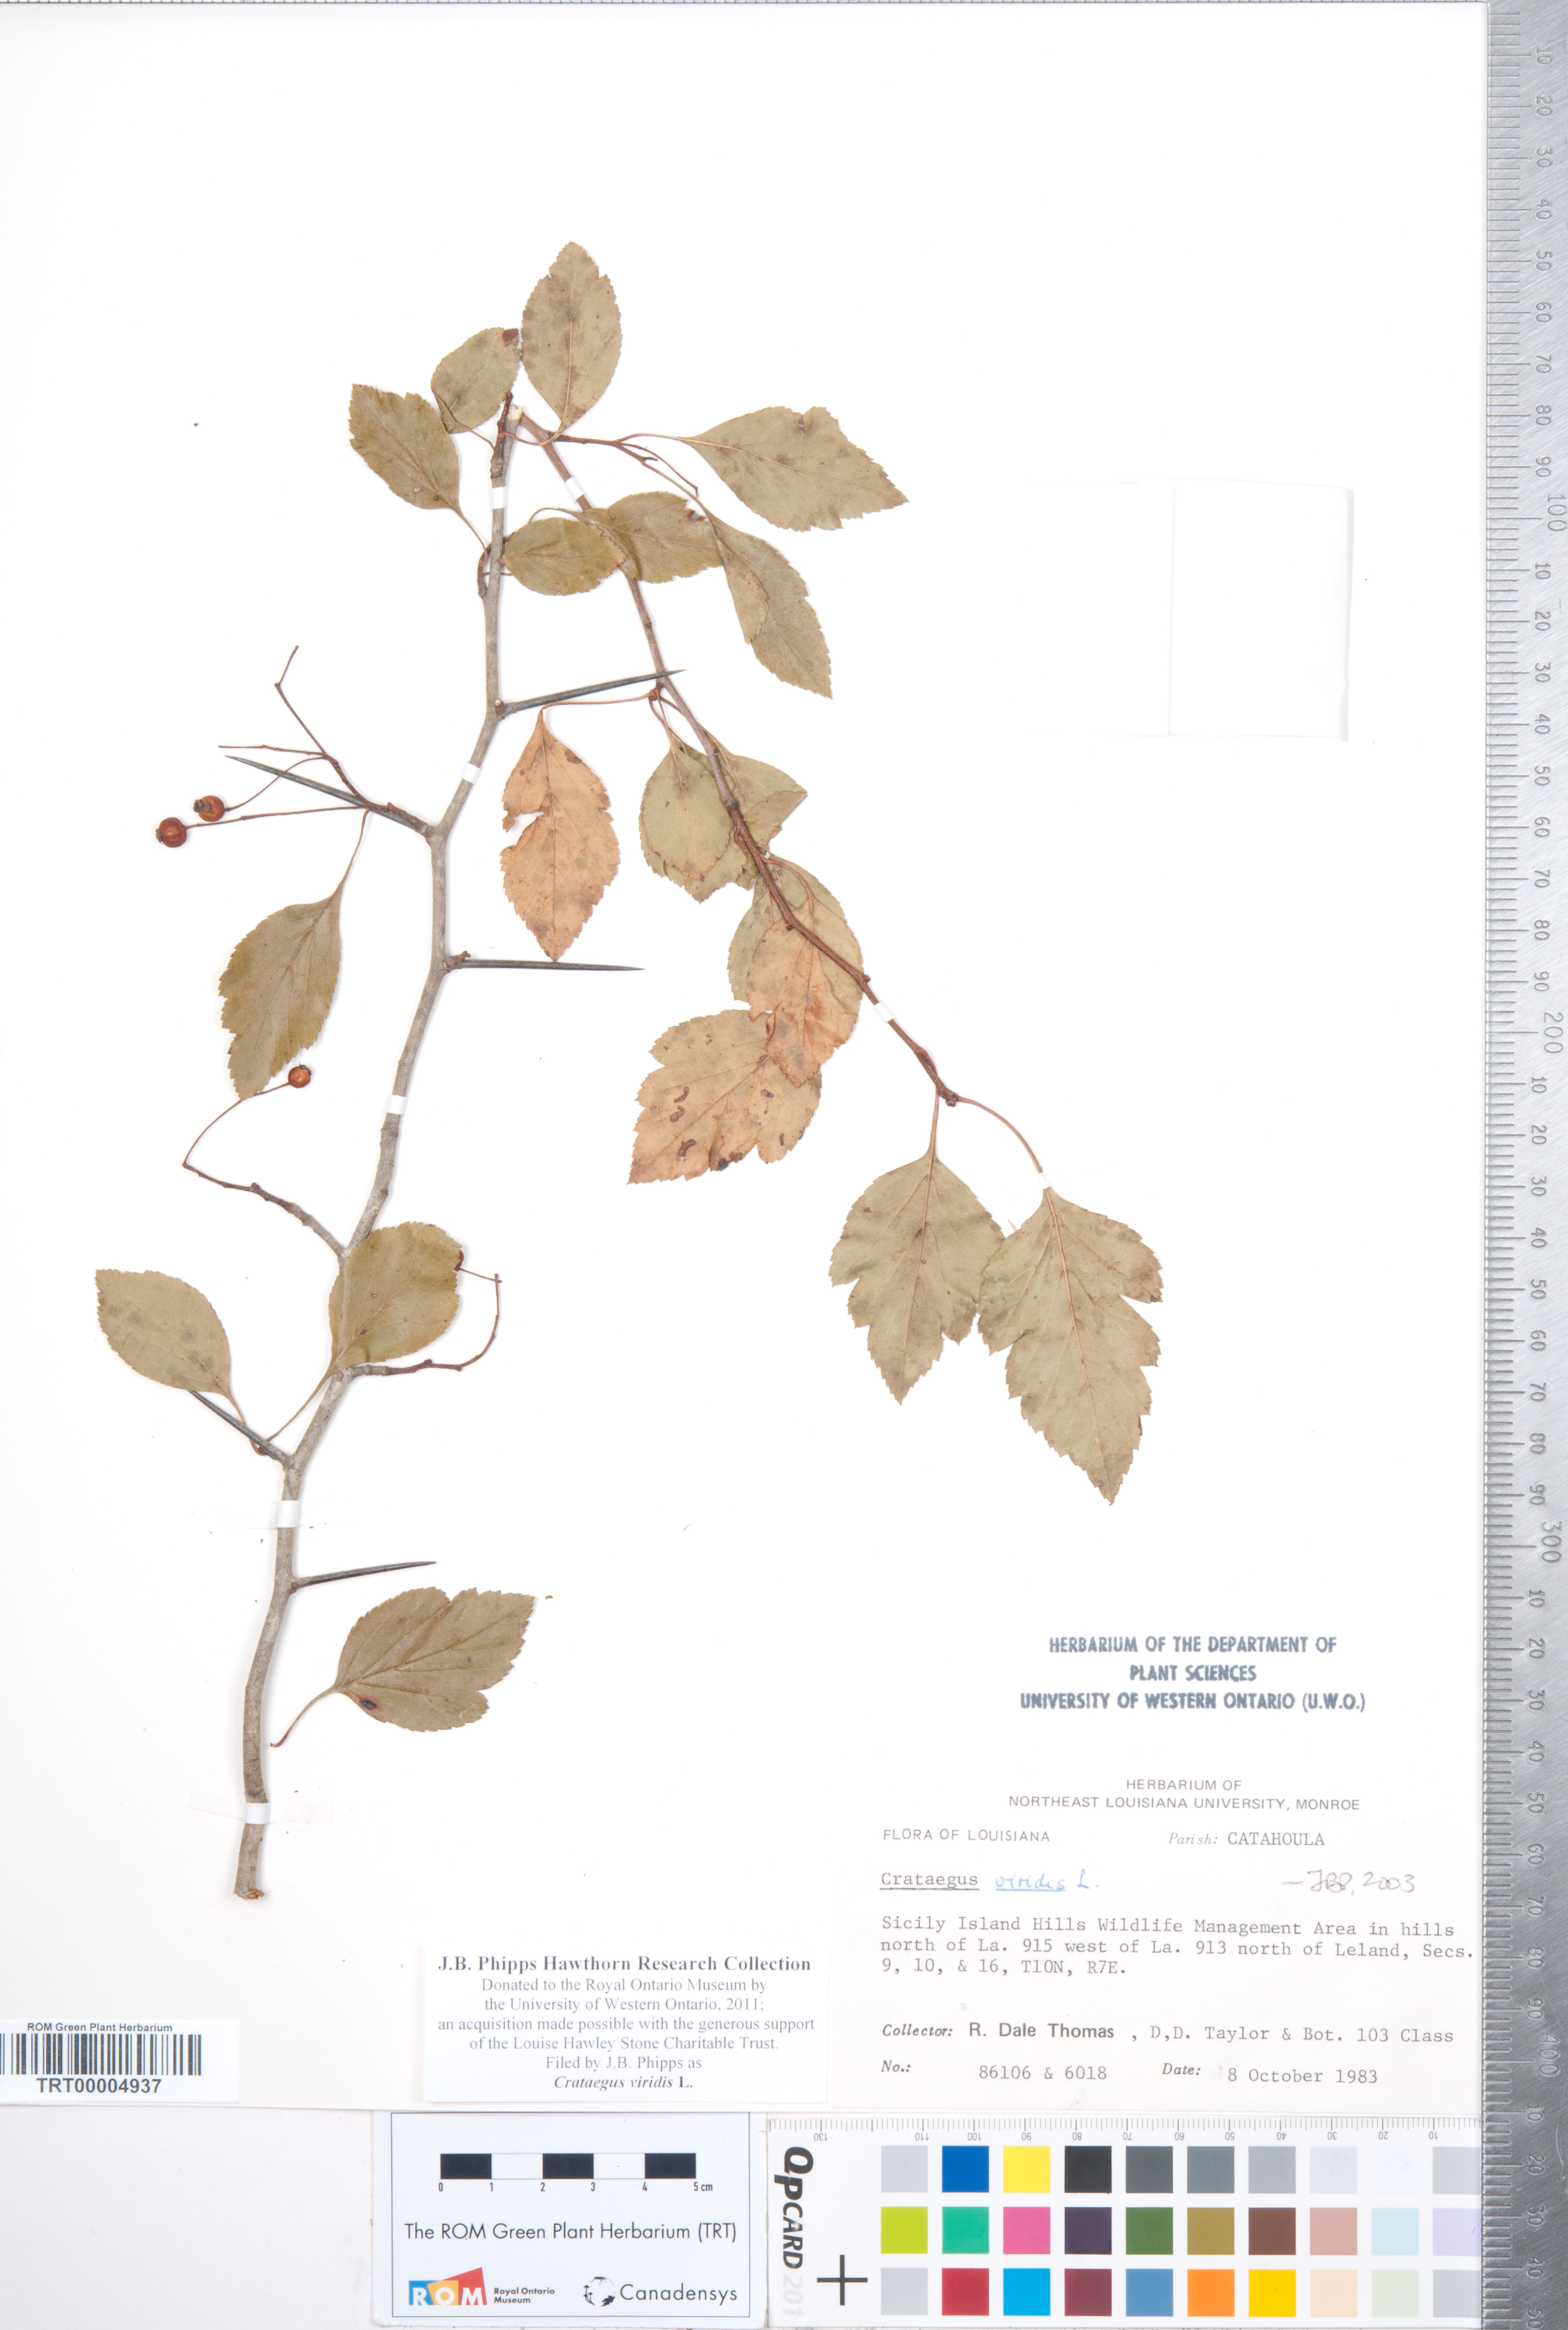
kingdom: Plantae
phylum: Tracheophyta
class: Magnoliopsida
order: Rosales
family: Rosaceae
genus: Crataegus
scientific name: Crataegus viridis
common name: Southernthorn
